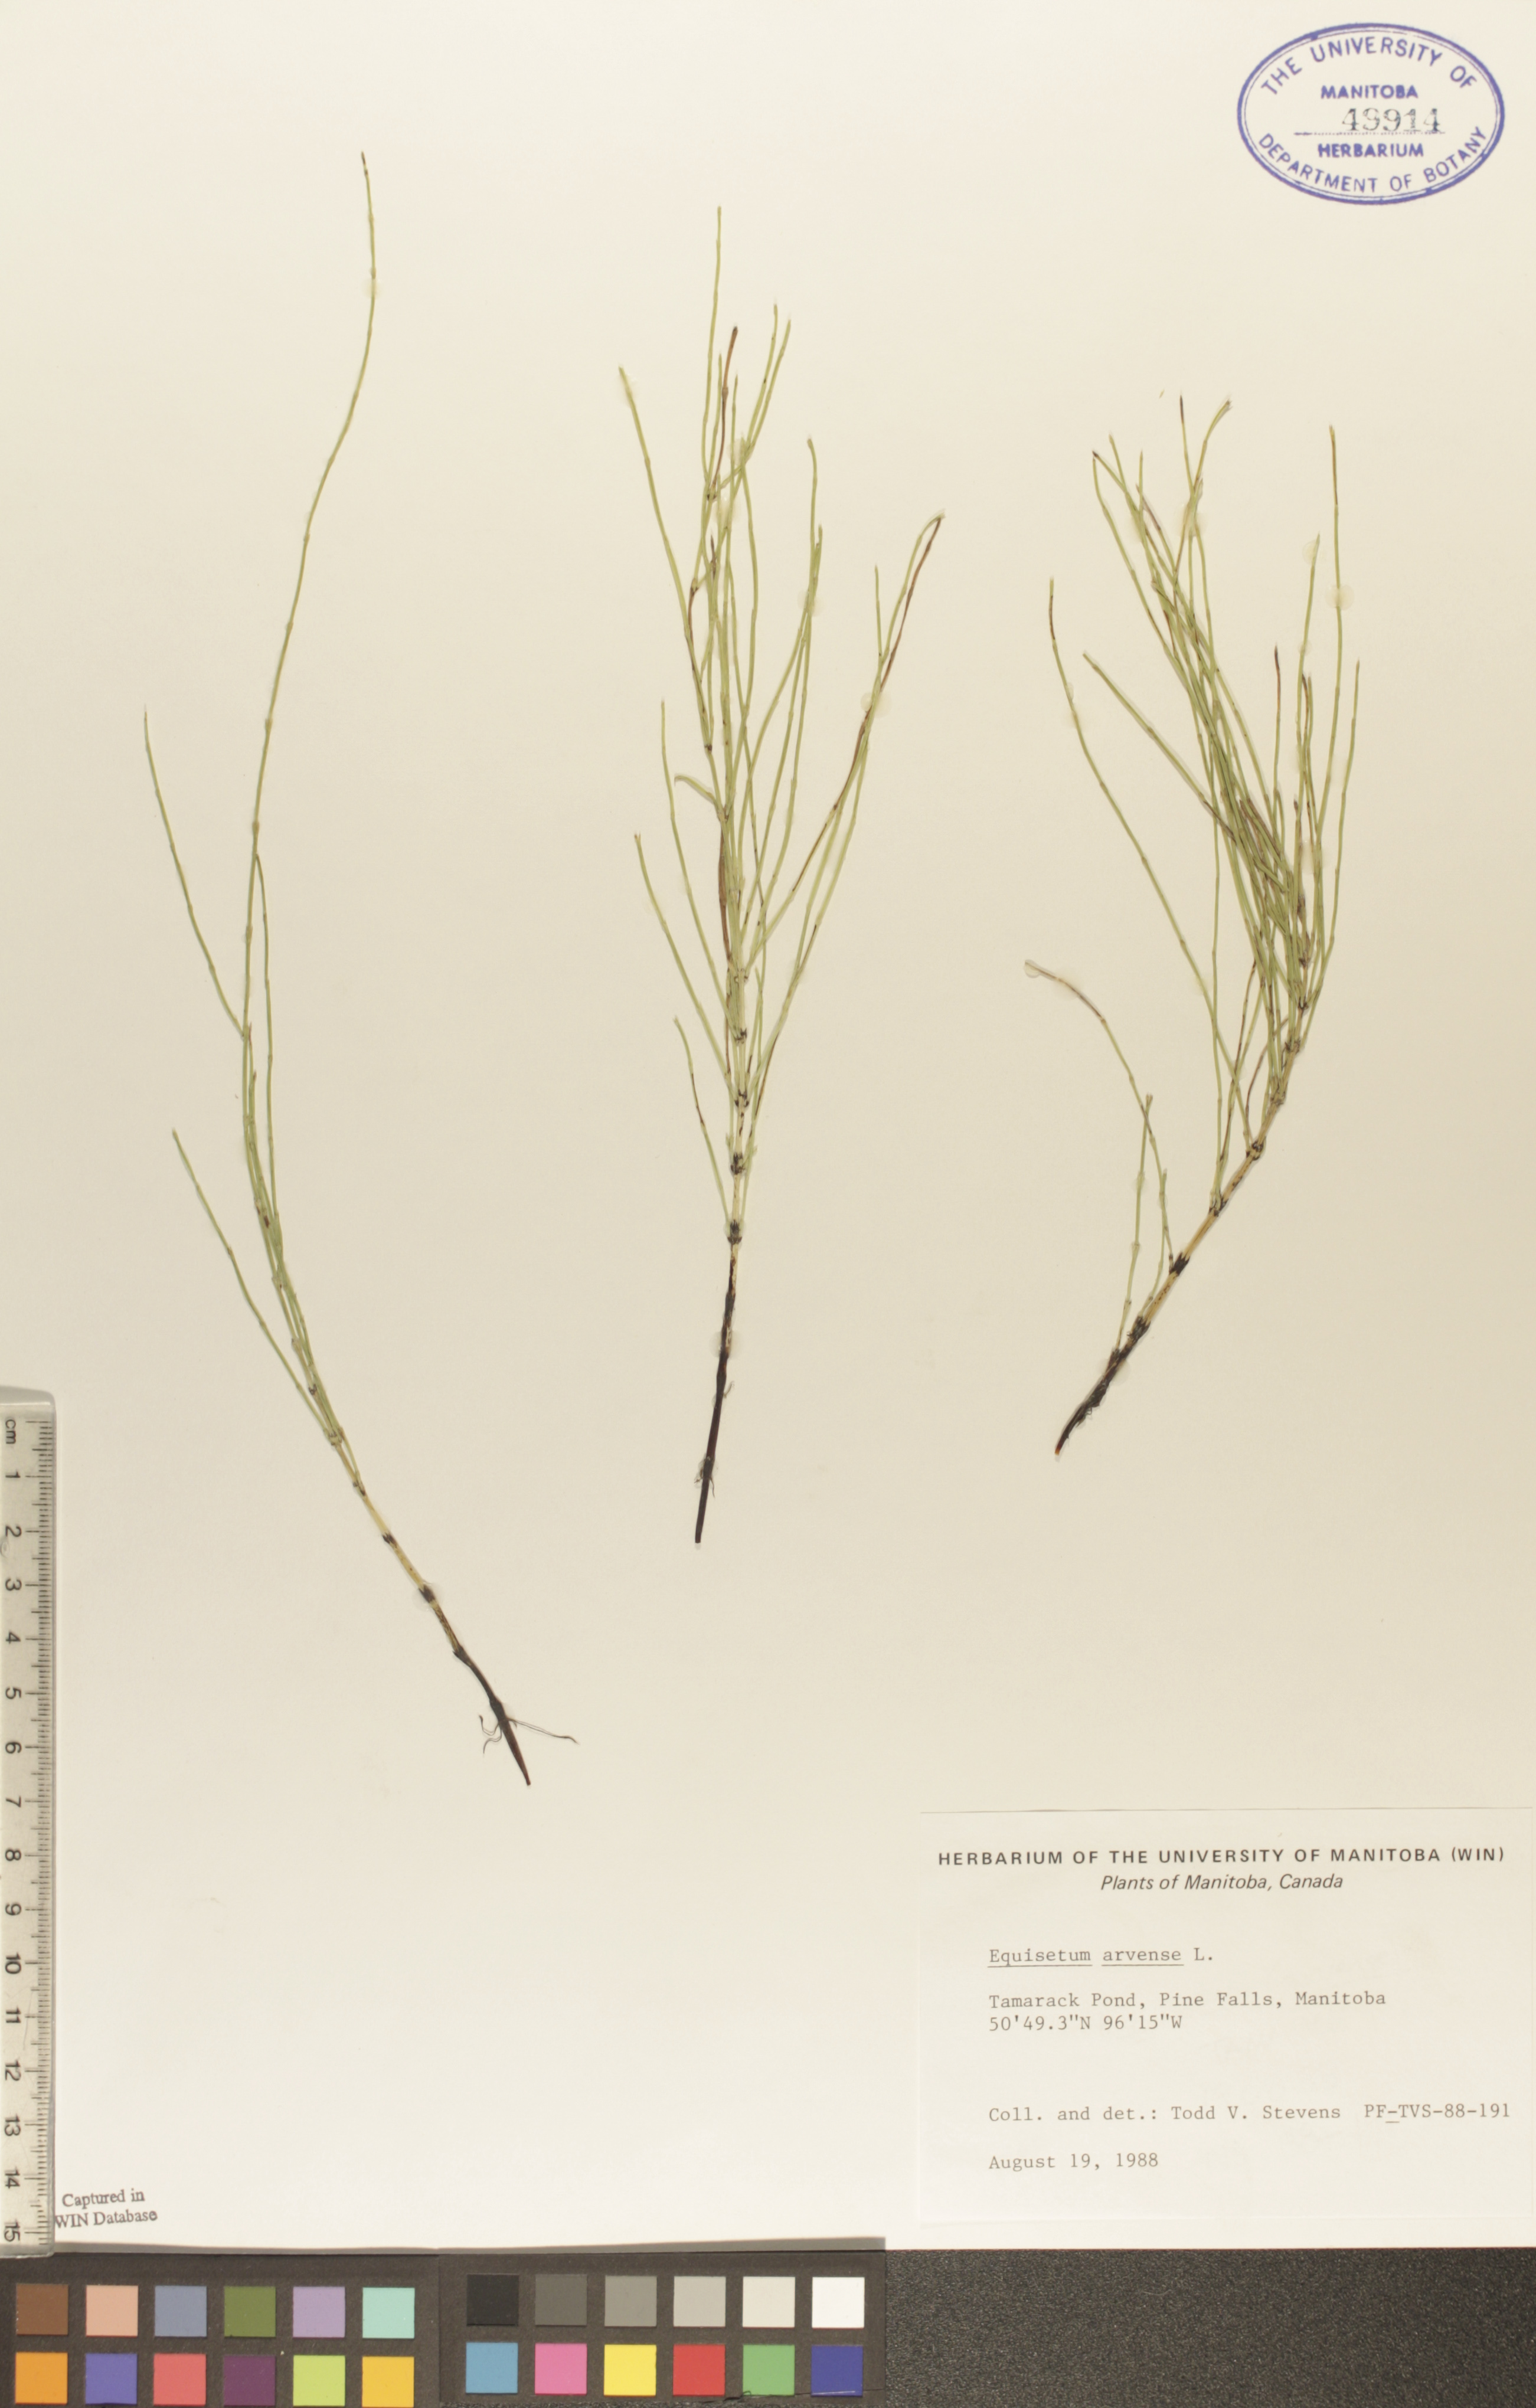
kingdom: Plantae
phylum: Tracheophyta
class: Polypodiopsida
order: Equisetales
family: Equisetaceae
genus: Equisetum
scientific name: Equisetum arvense
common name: Field horsetail
